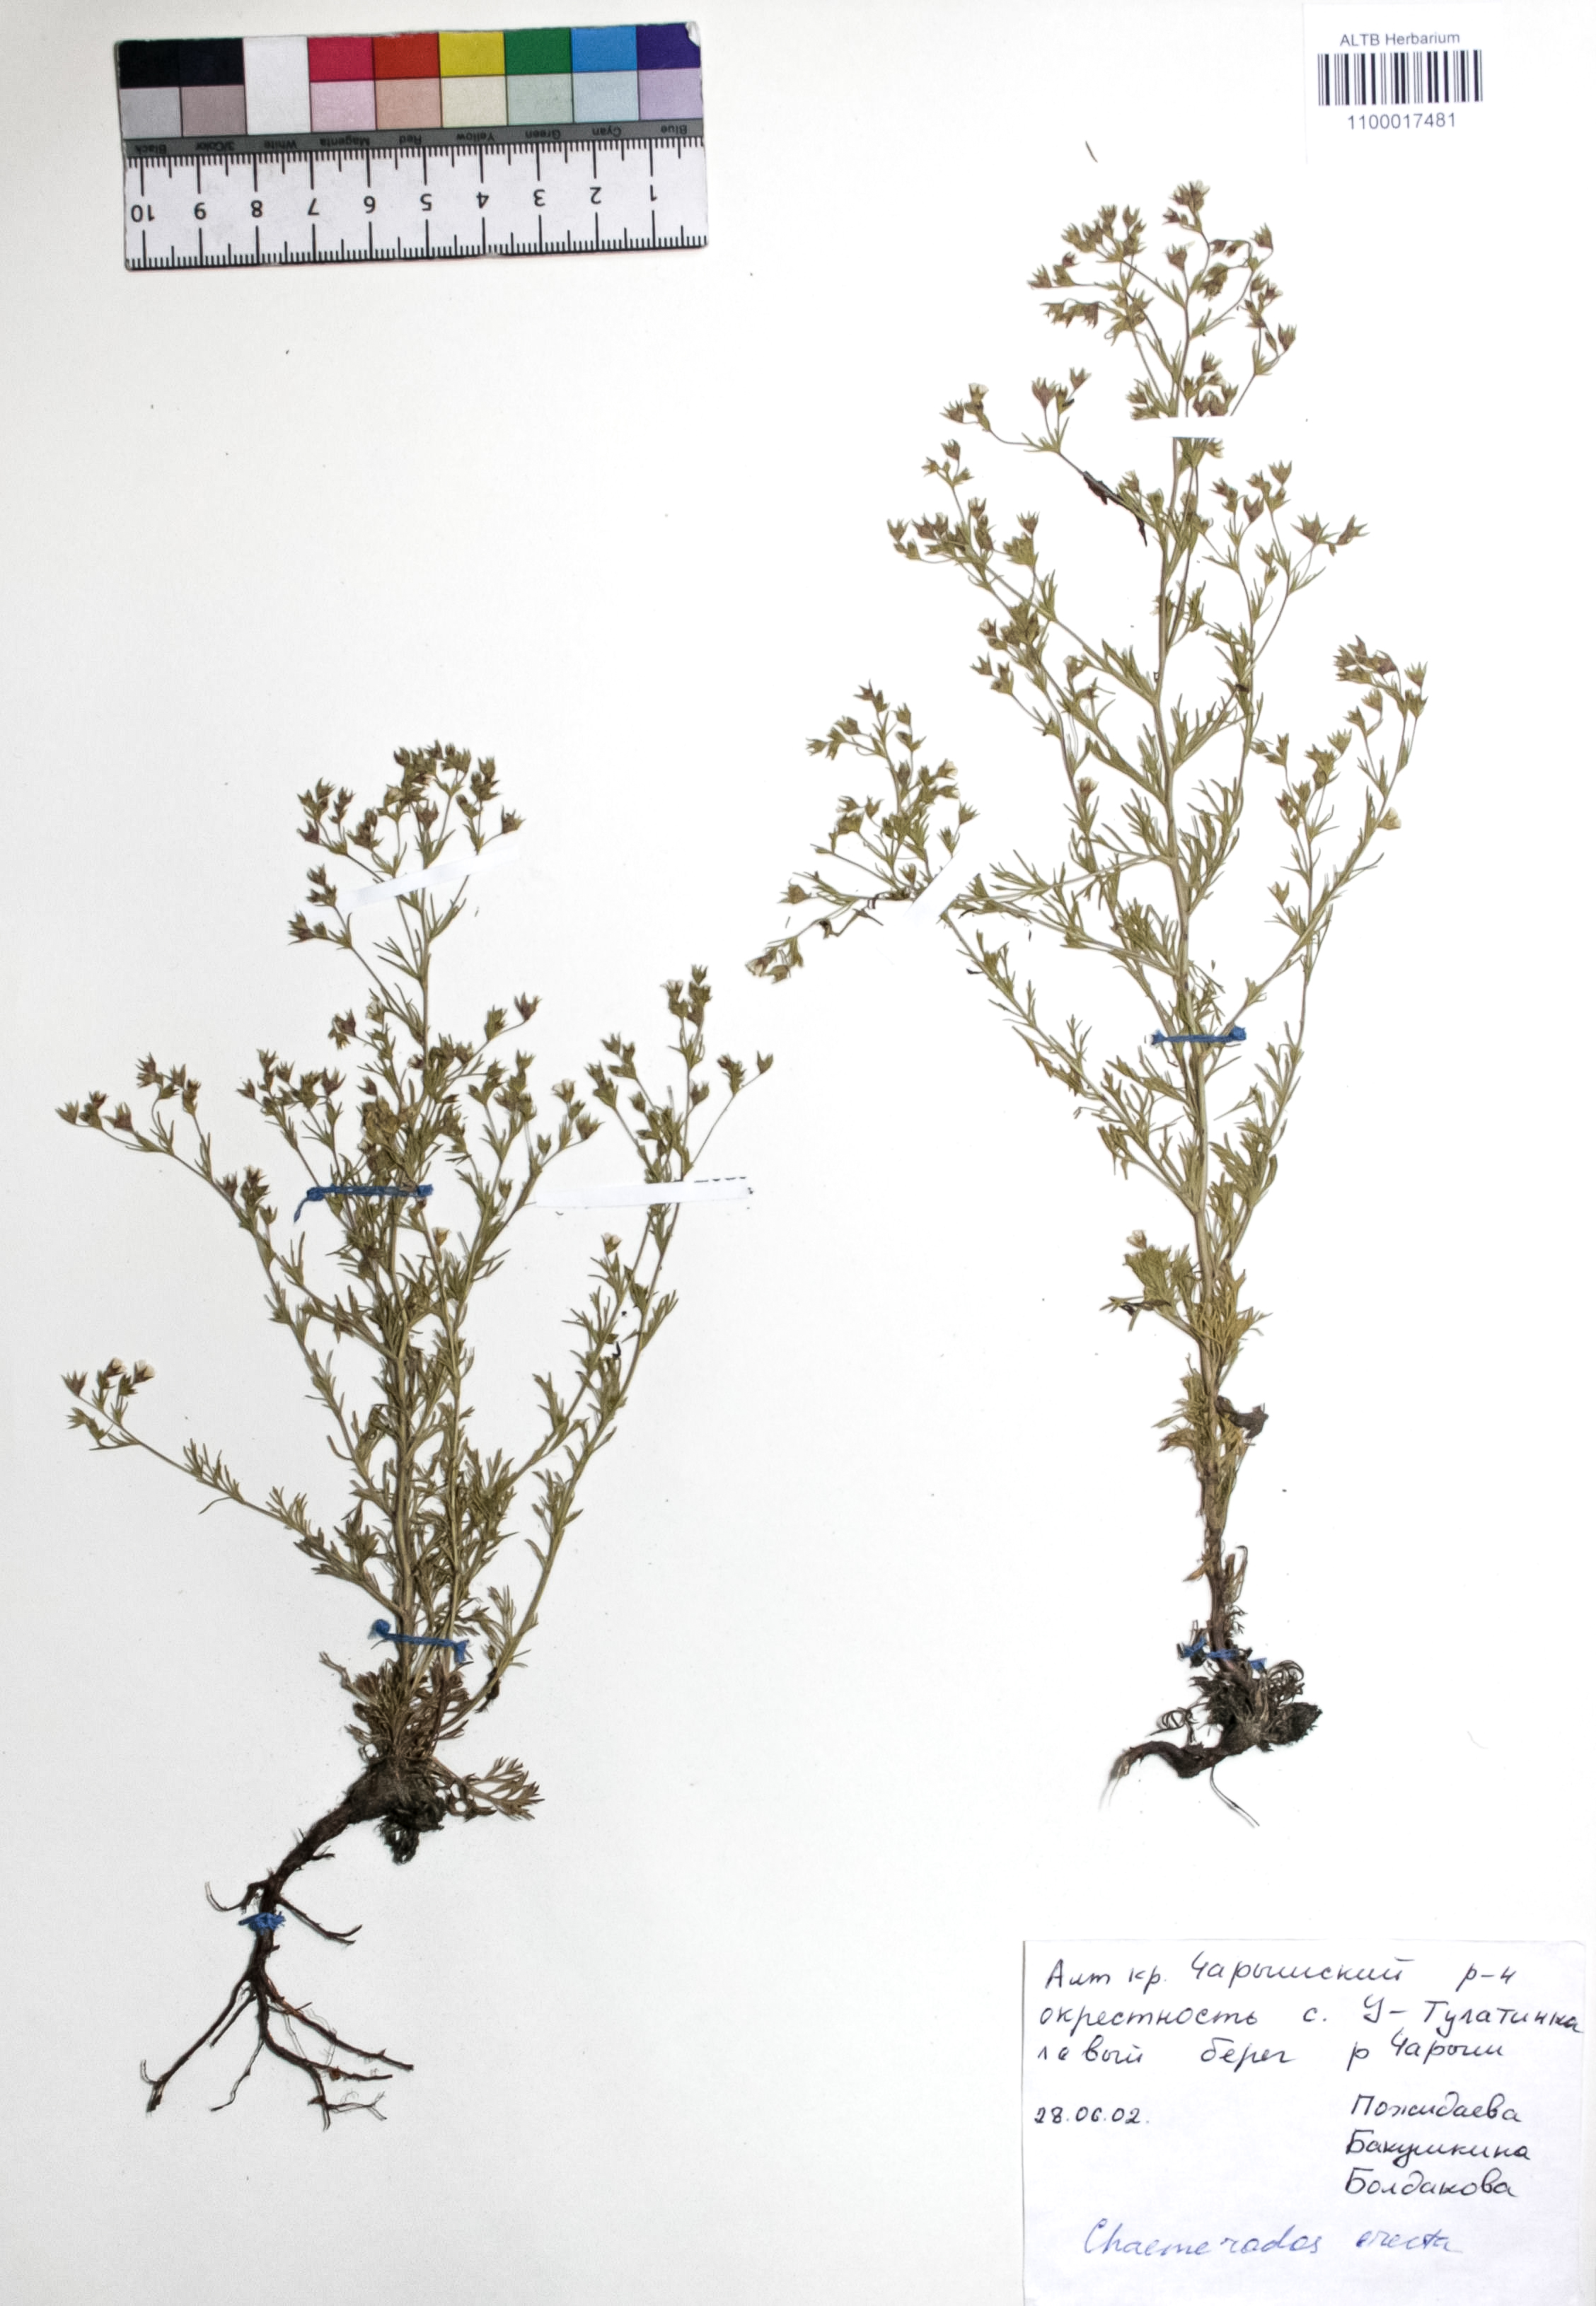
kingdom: Plantae
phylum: Tracheophyta
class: Magnoliopsida
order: Rosales
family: Rosaceae
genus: Chamaerhodos
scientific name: Chamaerhodos erecta
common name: American chamaerhodos
